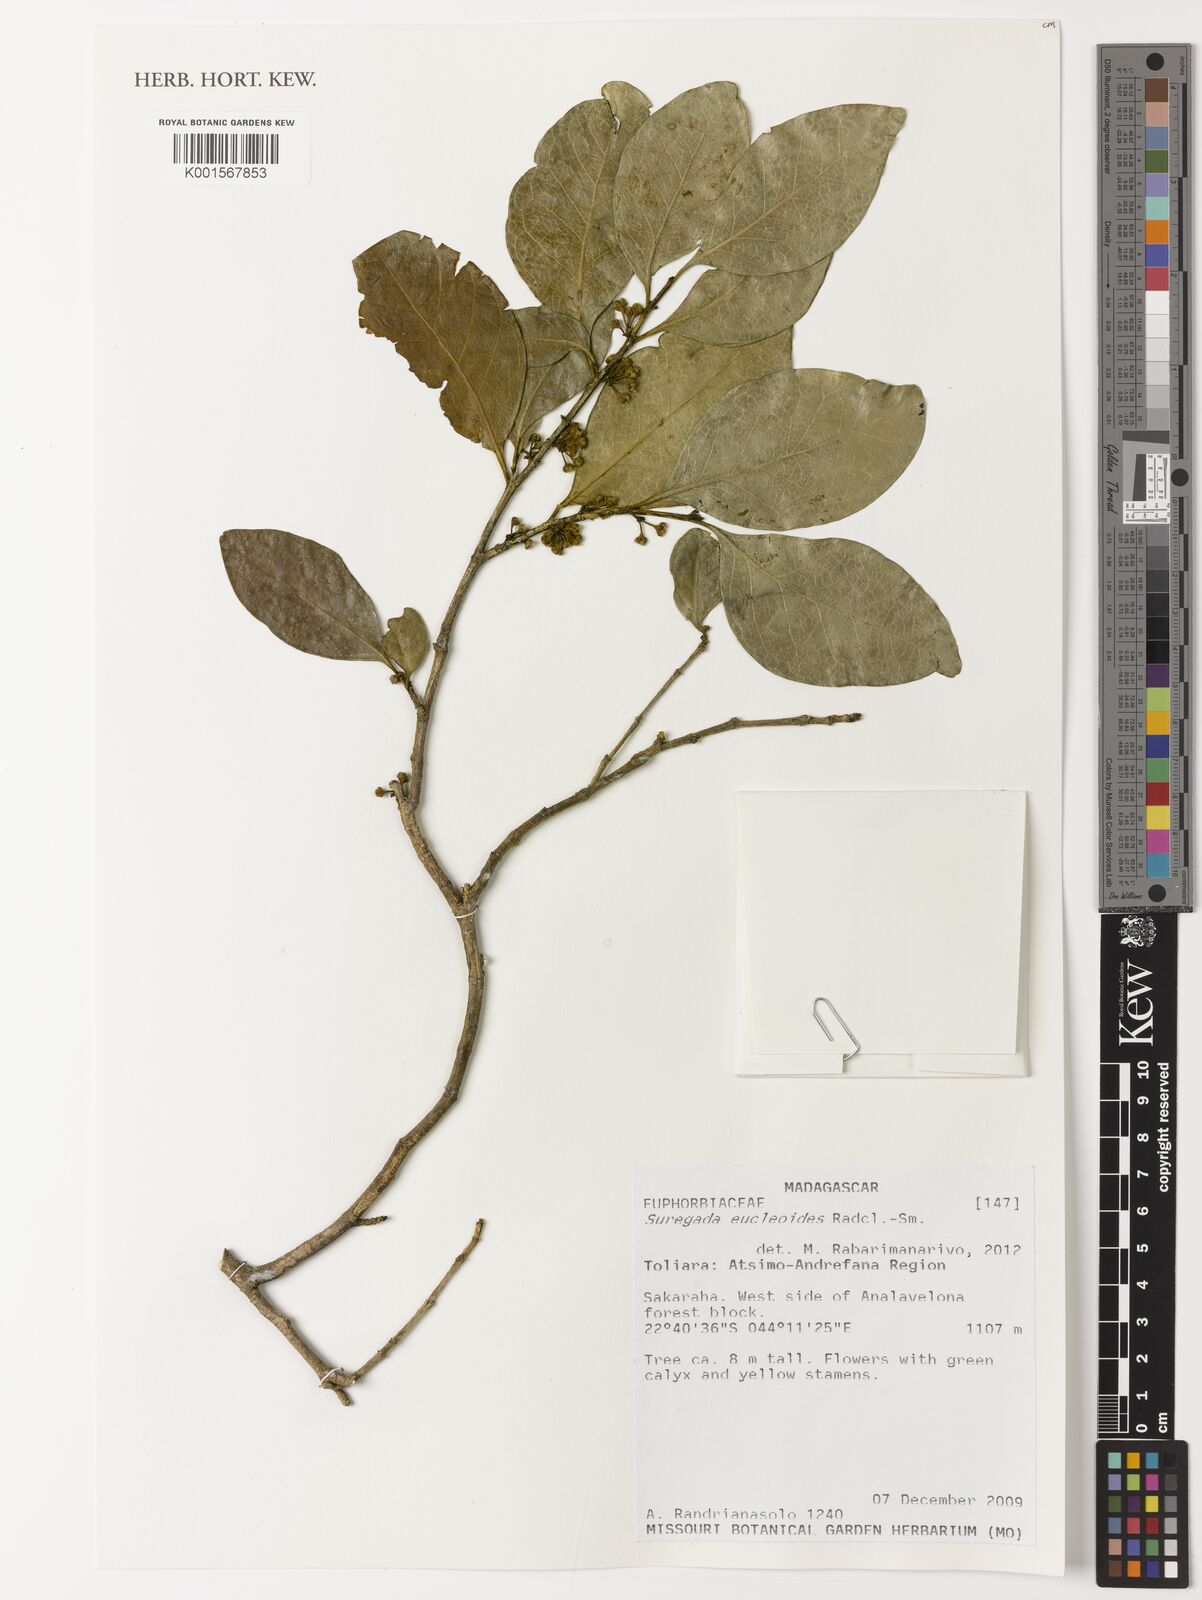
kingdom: Plantae
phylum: Tracheophyta
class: Magnoliopsida
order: Malpighiales
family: Euphorbiaceae
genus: Suregada
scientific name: Suregada eucleoides
